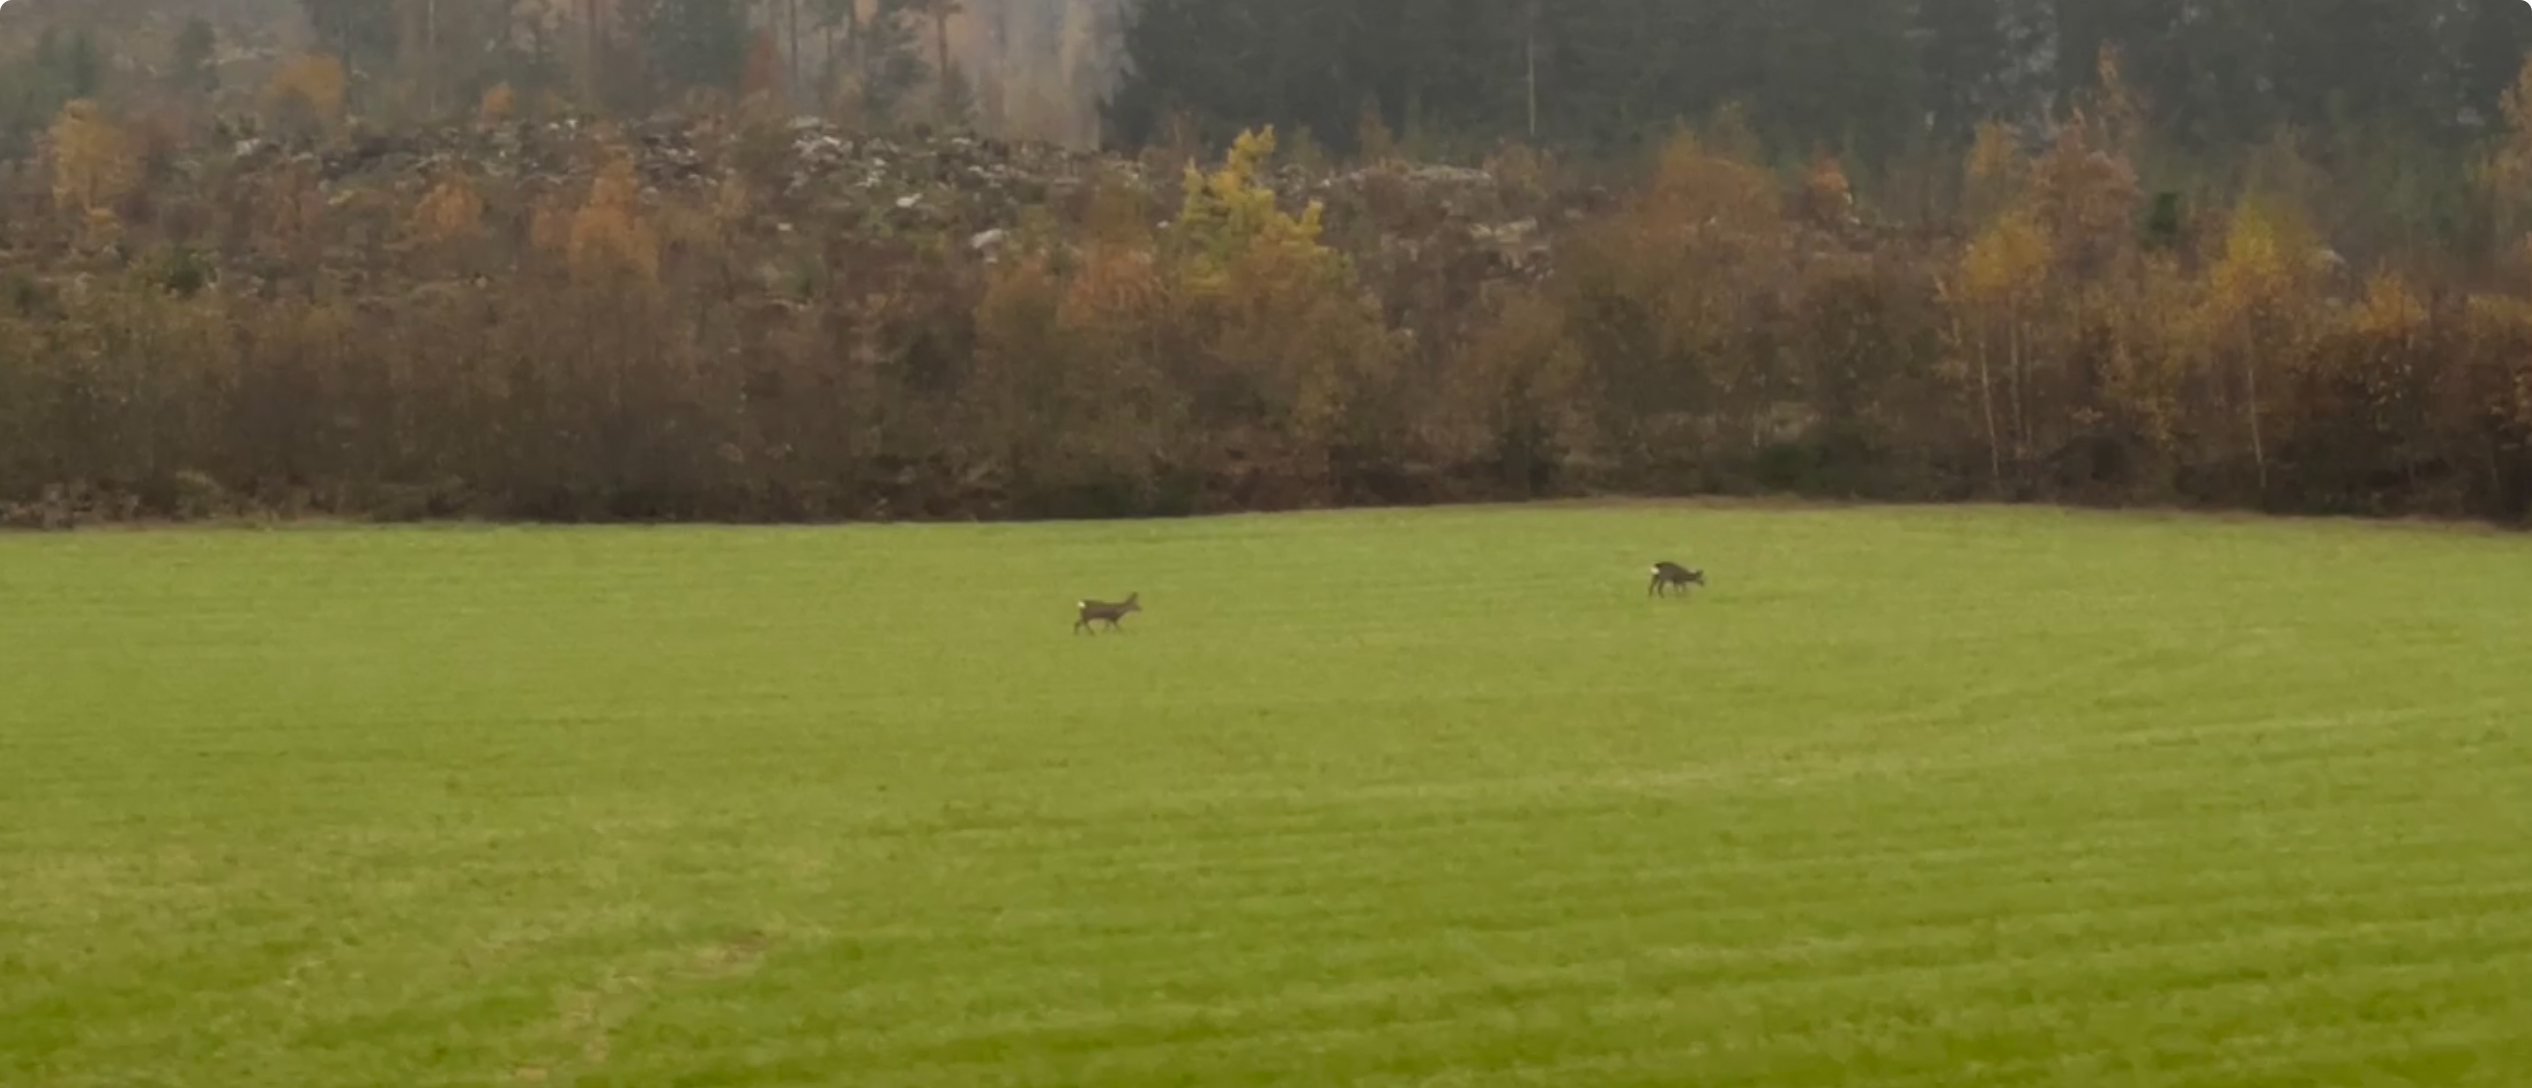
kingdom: Animalia
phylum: Chordata
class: Mammalia
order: Artiodactyla
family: Cervidae
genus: Rangifer
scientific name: Rangifer tarandus
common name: Reindeer
